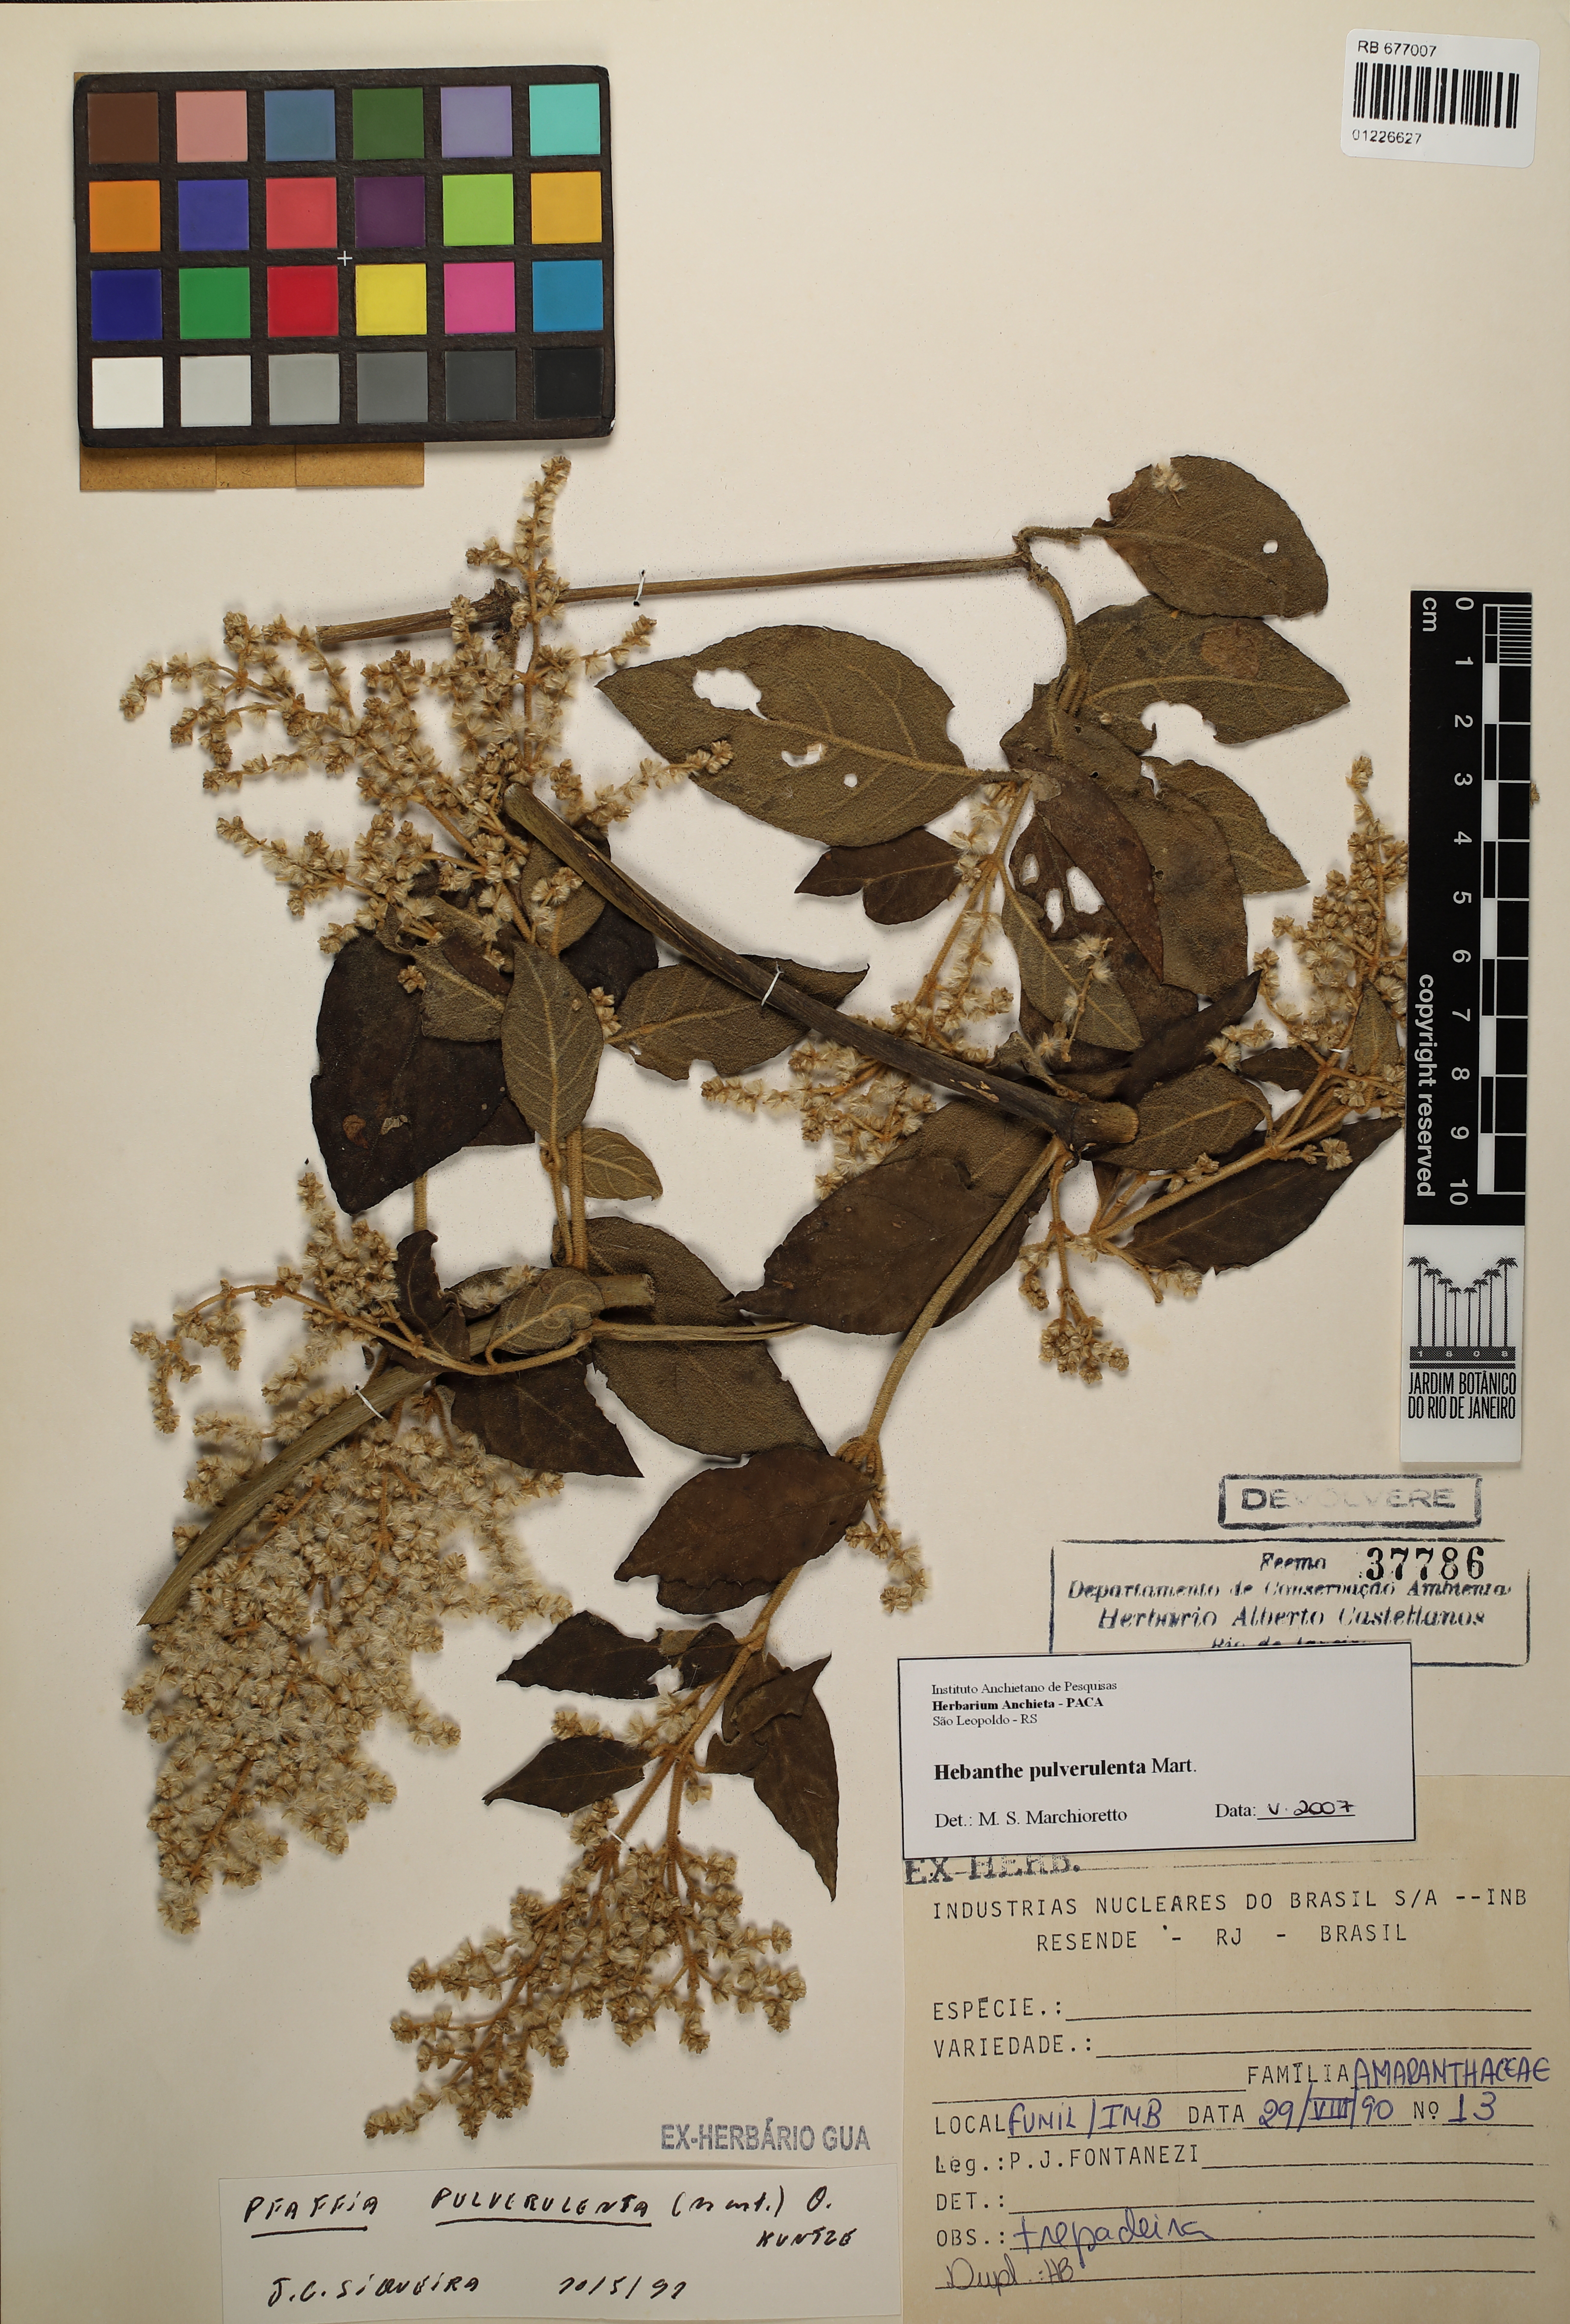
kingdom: Plantae
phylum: Tracheophyta
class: Magnoliopsida
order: Caryophyllales
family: Amaranthaceae
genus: Hebanthe
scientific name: Hebanthe pulverulenta
